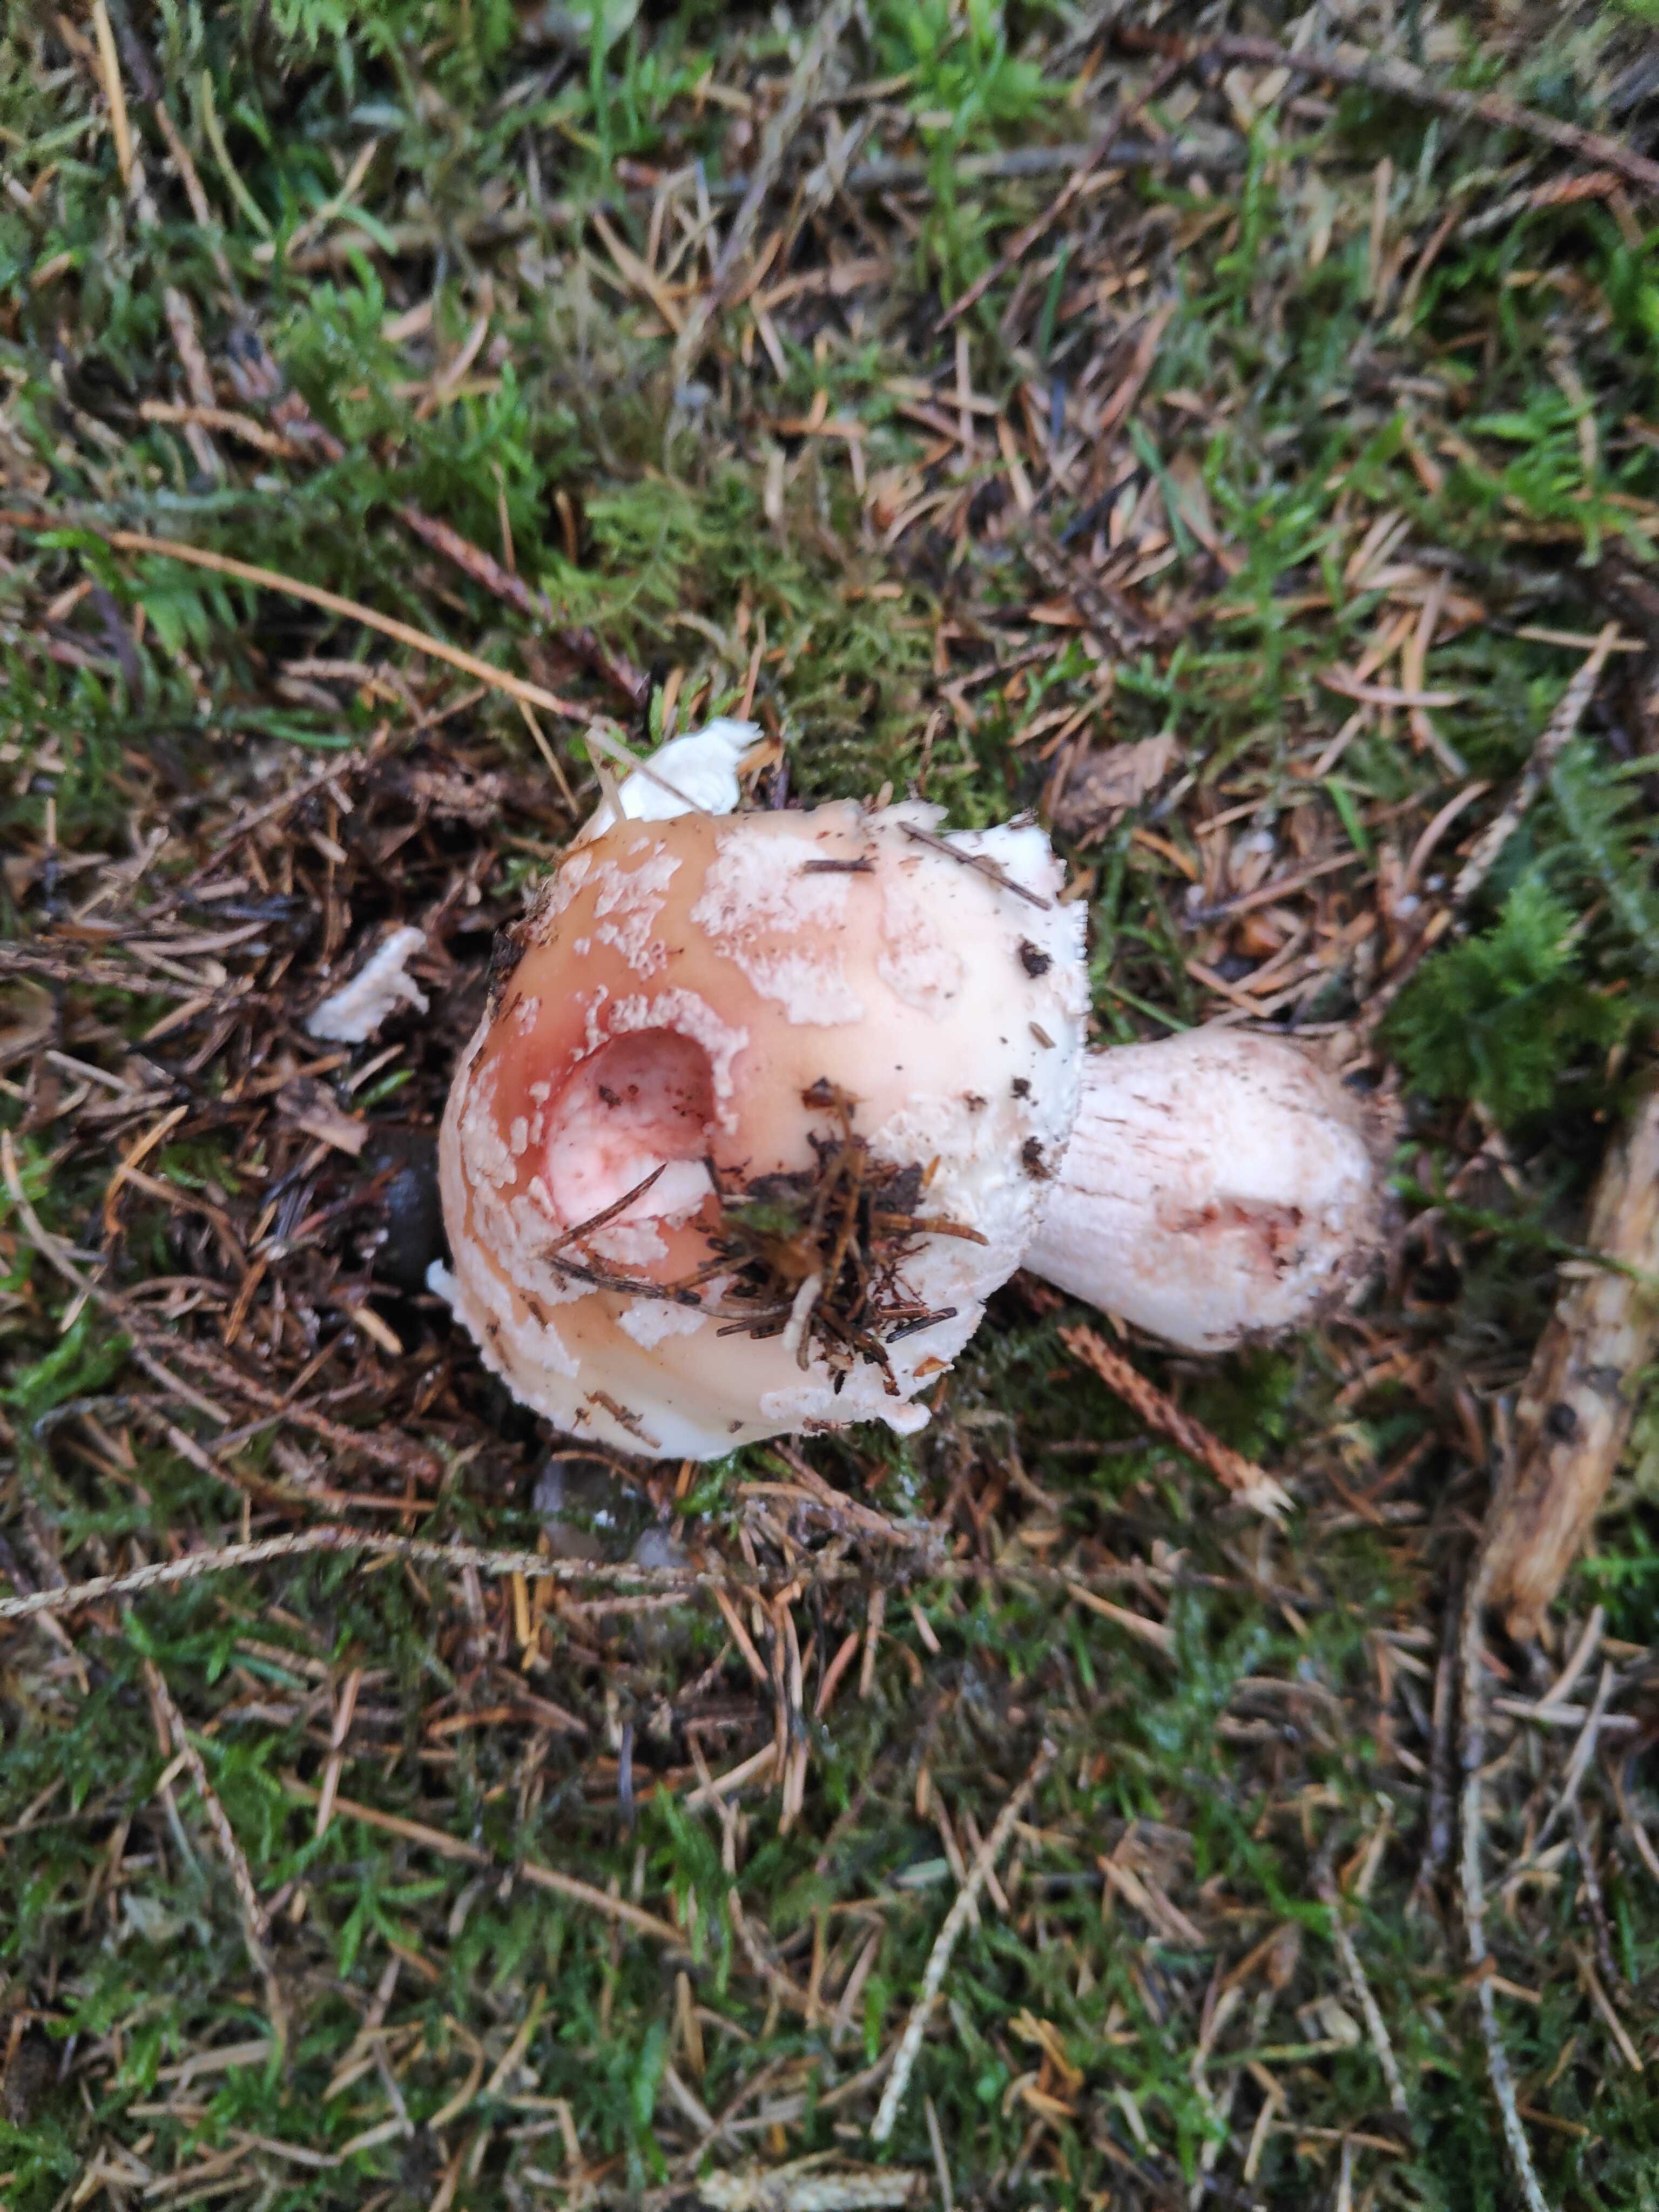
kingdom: Fungi
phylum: Basidiomycota
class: Agaricomycetes
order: Agaricales
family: Amanitaceae
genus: Amanita
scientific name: Amanita rubescens
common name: rødmende fluesvamp
